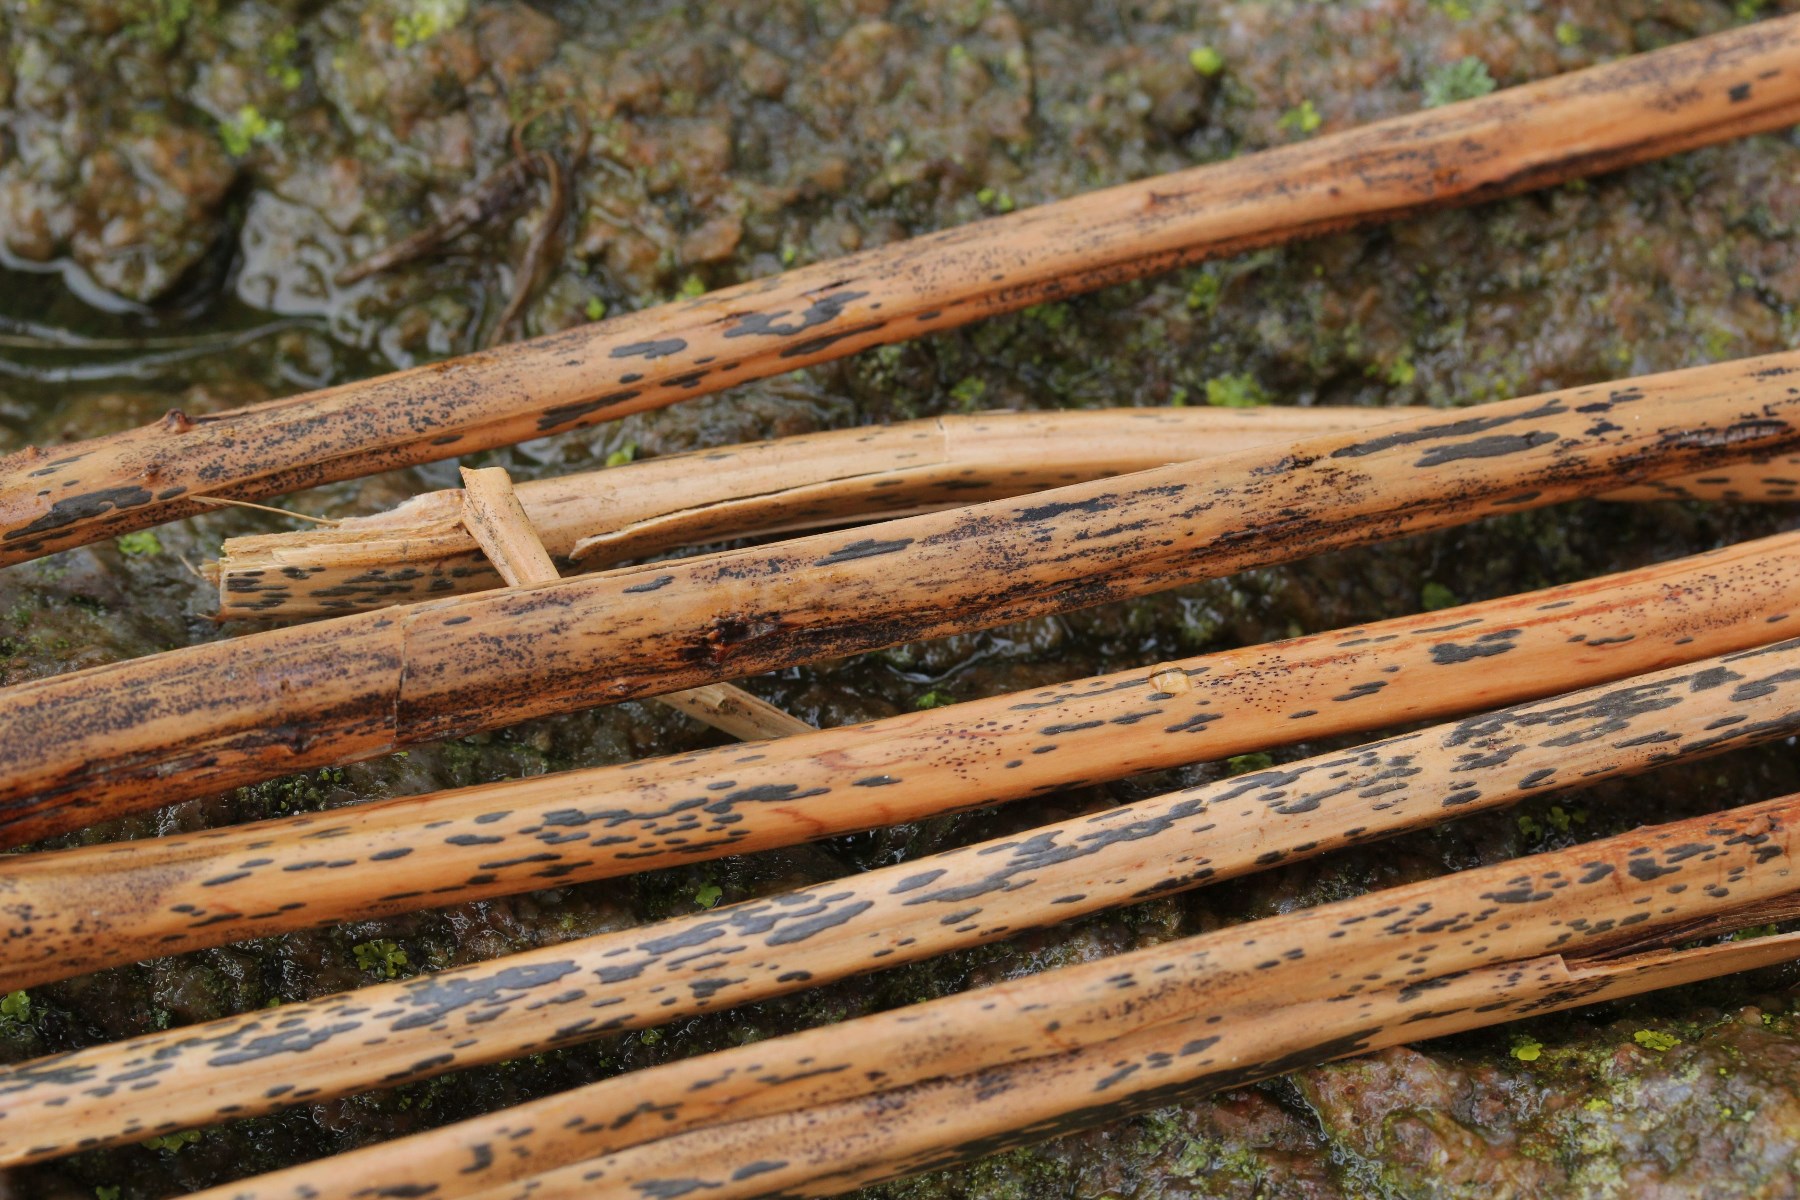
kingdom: Fungi
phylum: Ascomycota
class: Dothideomycetes
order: Pleosporales
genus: Rhopographus
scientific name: Rhopographus filicinus
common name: Bracken map
